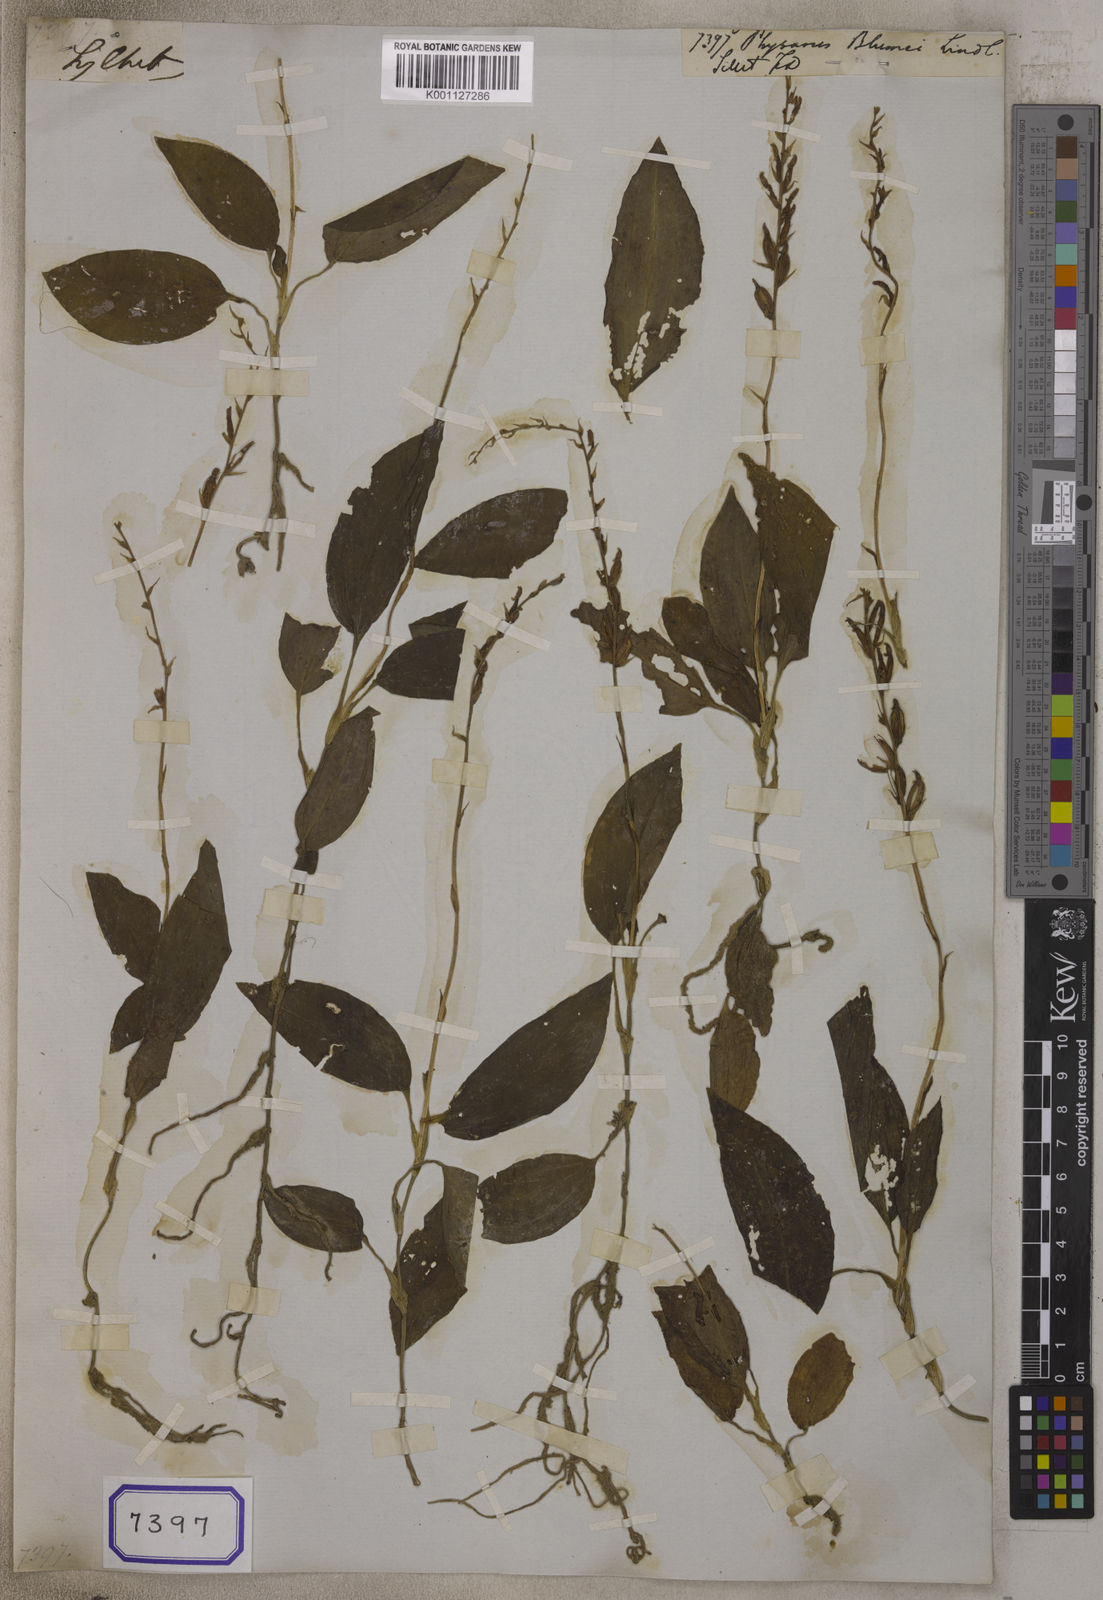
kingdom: Plantae
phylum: Tracheophyta
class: Liliopsida
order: Asparagales
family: Orchidaceae
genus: Erythrodes
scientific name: Erythrodes blumei
